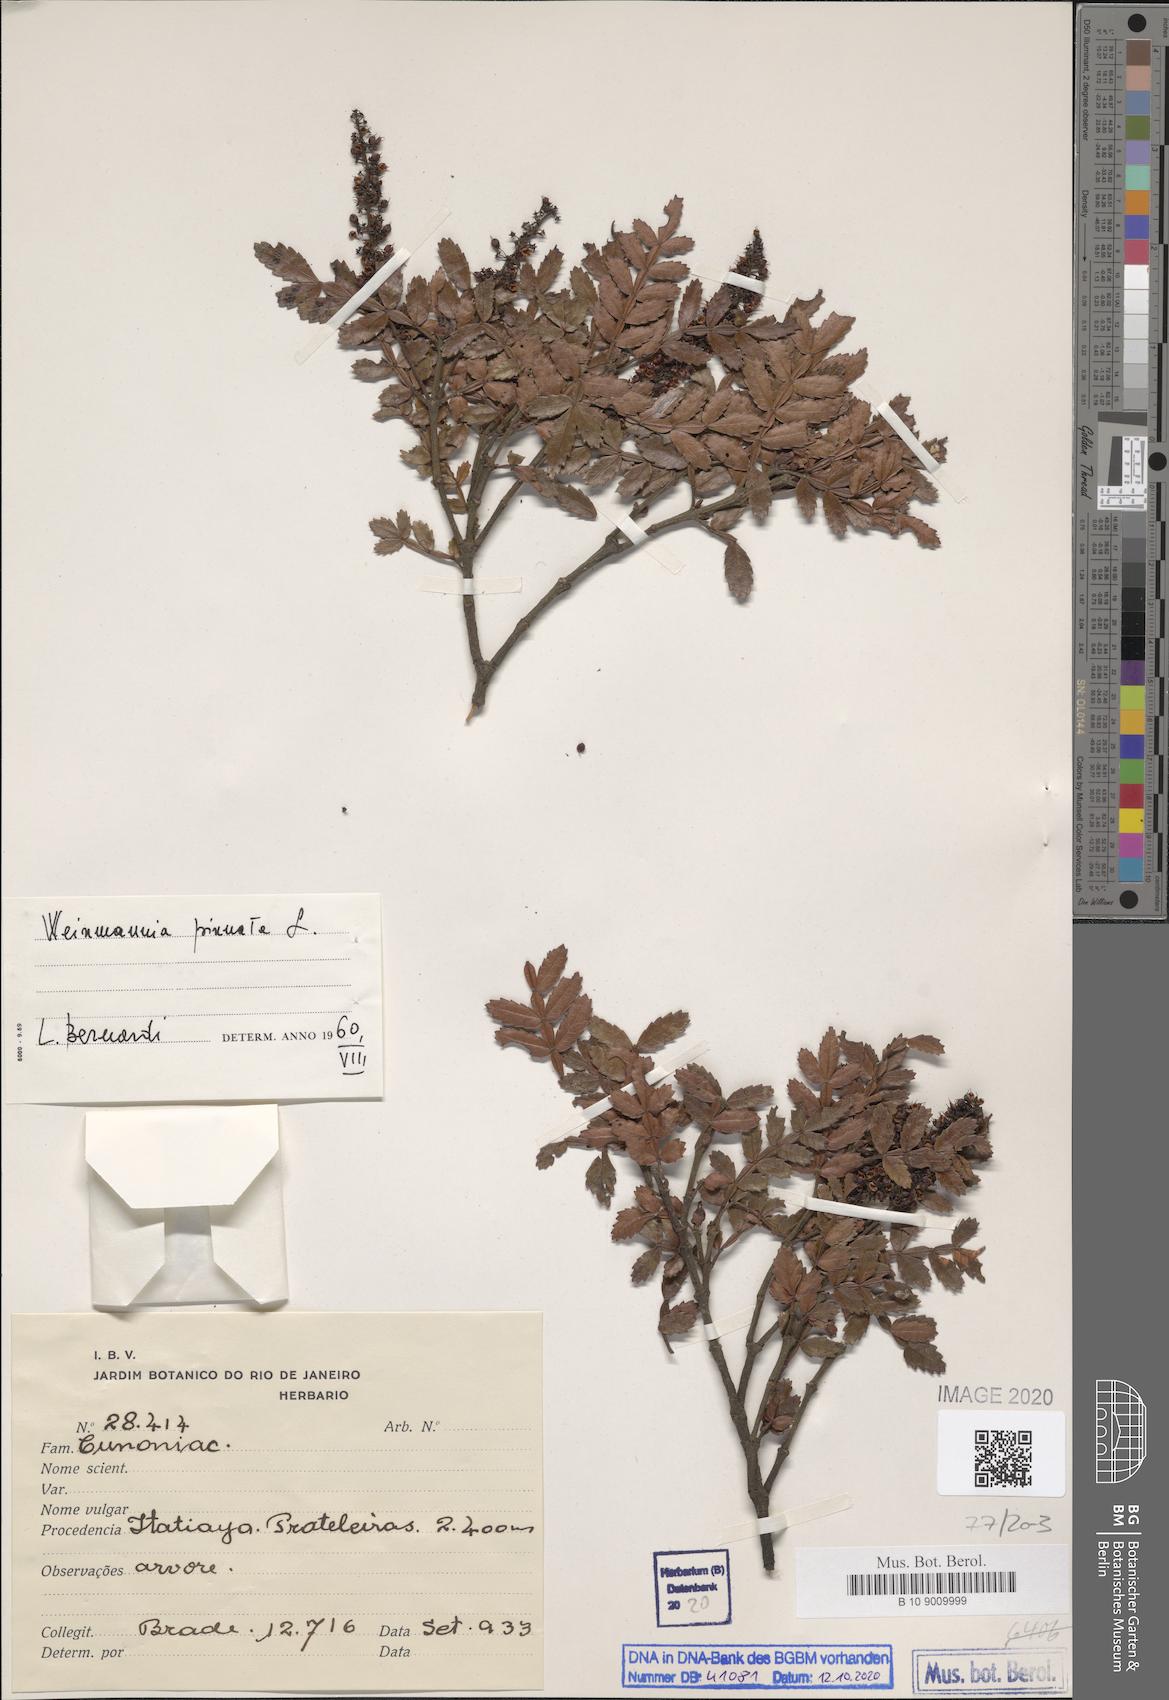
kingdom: Plantae
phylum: Tracheophyta
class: Magnoliopsida
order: Oxalidales
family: Cunoniaceae
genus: Weinmannia
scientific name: Weinmannia pinnata
